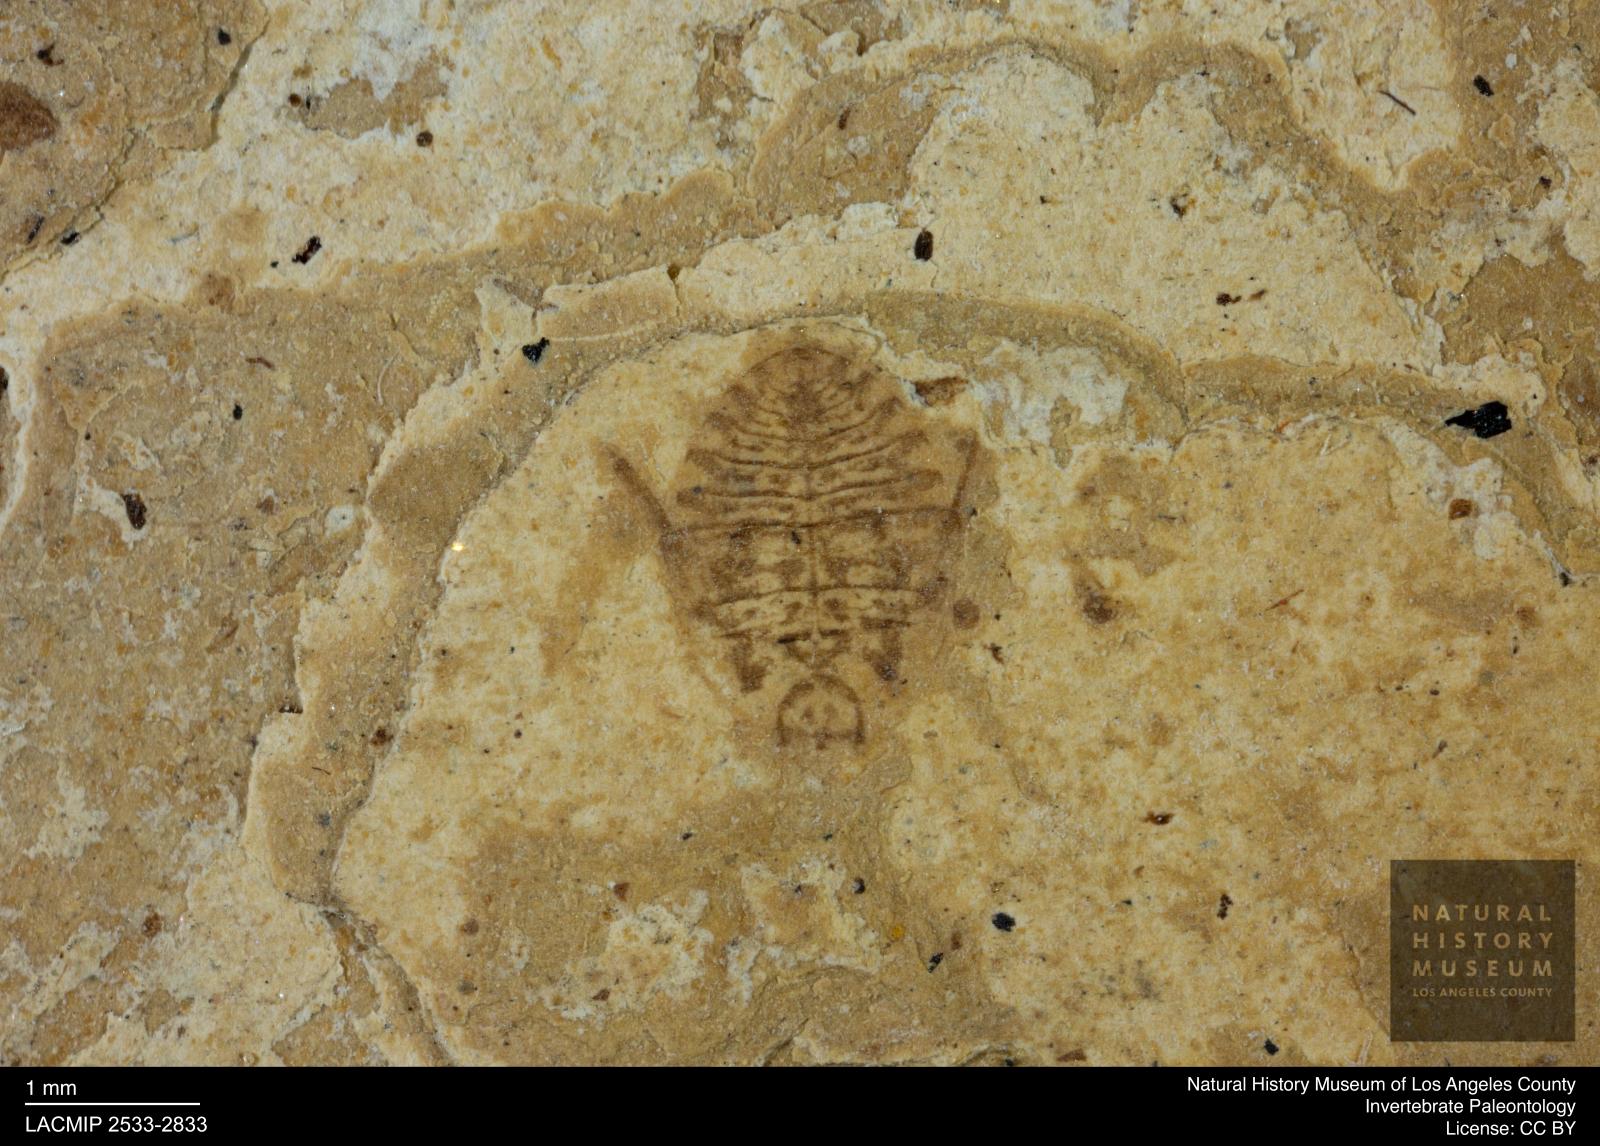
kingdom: Animalia
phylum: Arthropoda
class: Insecta
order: Hemiptera
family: Naucoridae
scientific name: Naucoridae
